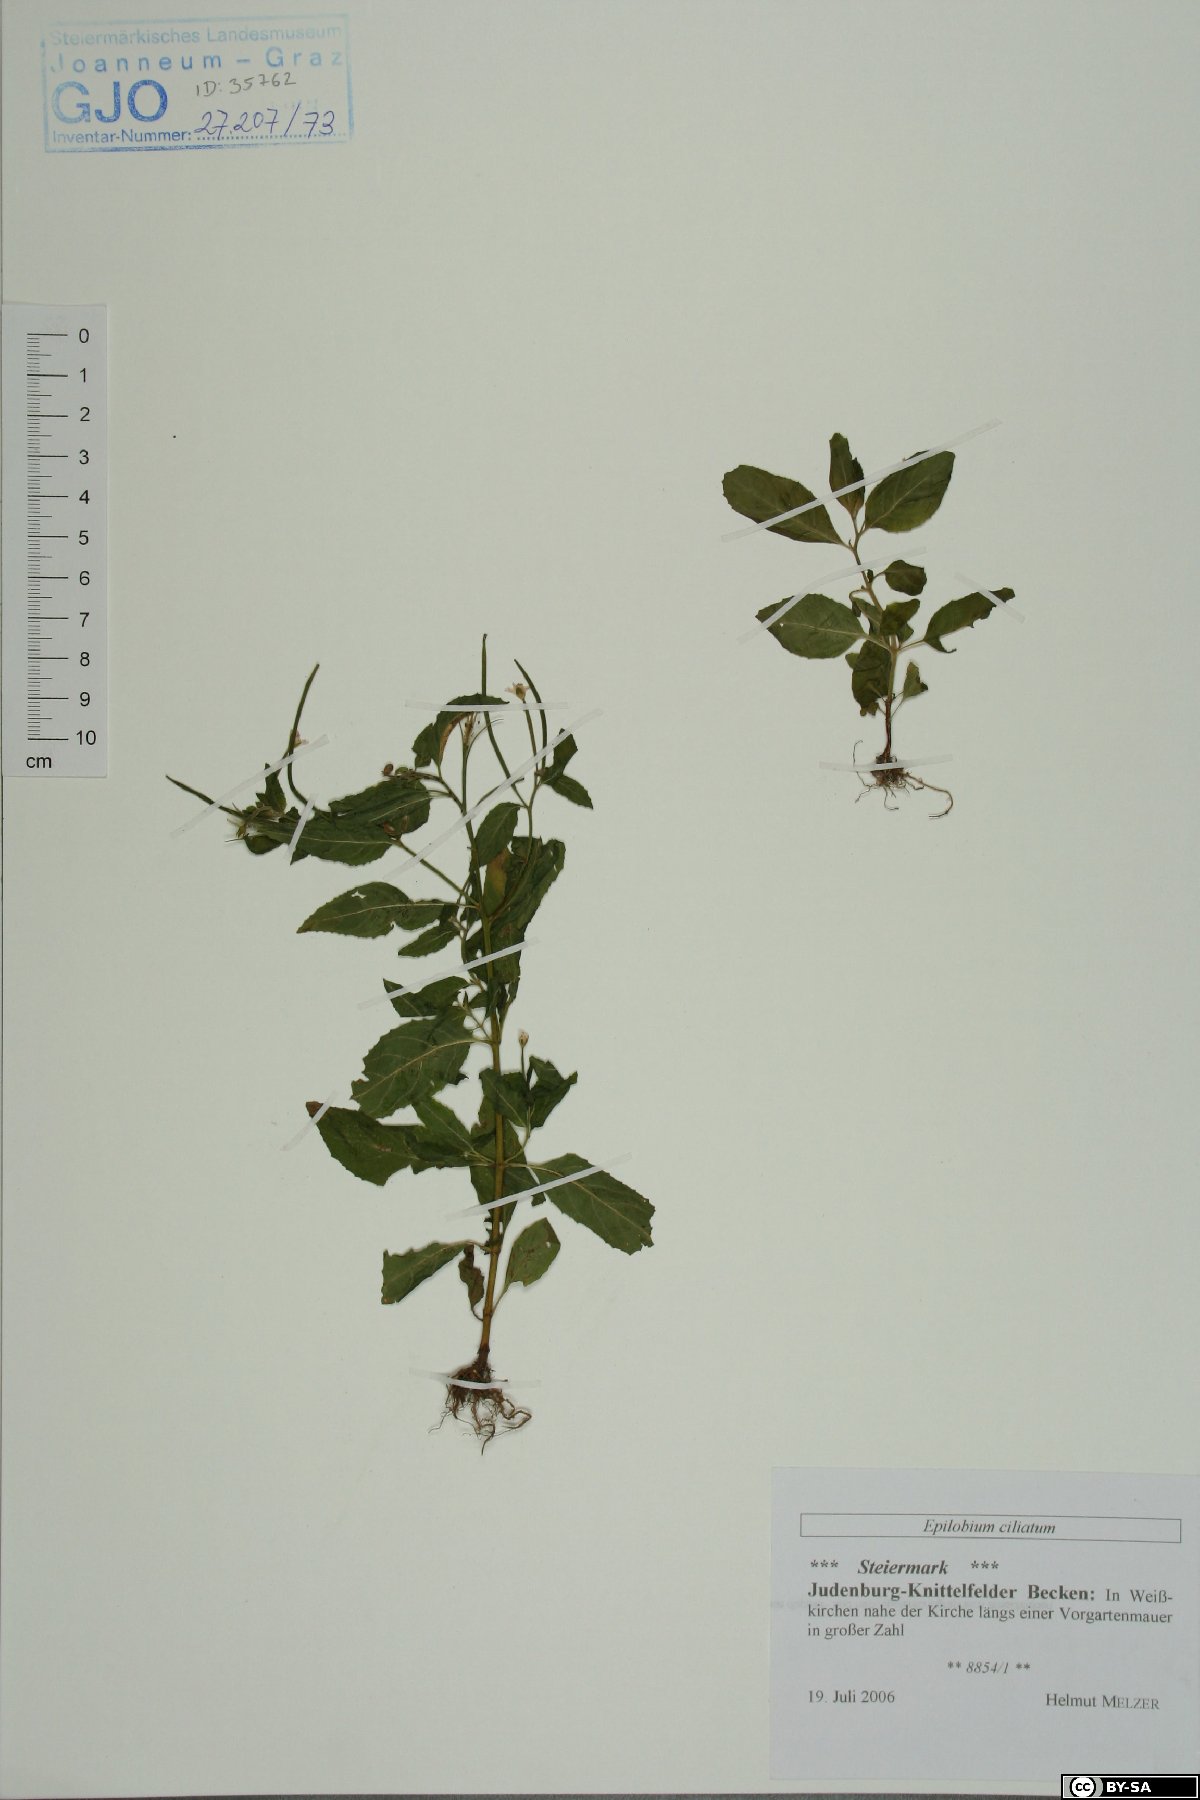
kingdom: Plantae
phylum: Tracheophyta
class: Magnoliopsida
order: Myrtales
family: Onagraceae
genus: Epilobium
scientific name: Epilobium ciliatum
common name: American willowherb
